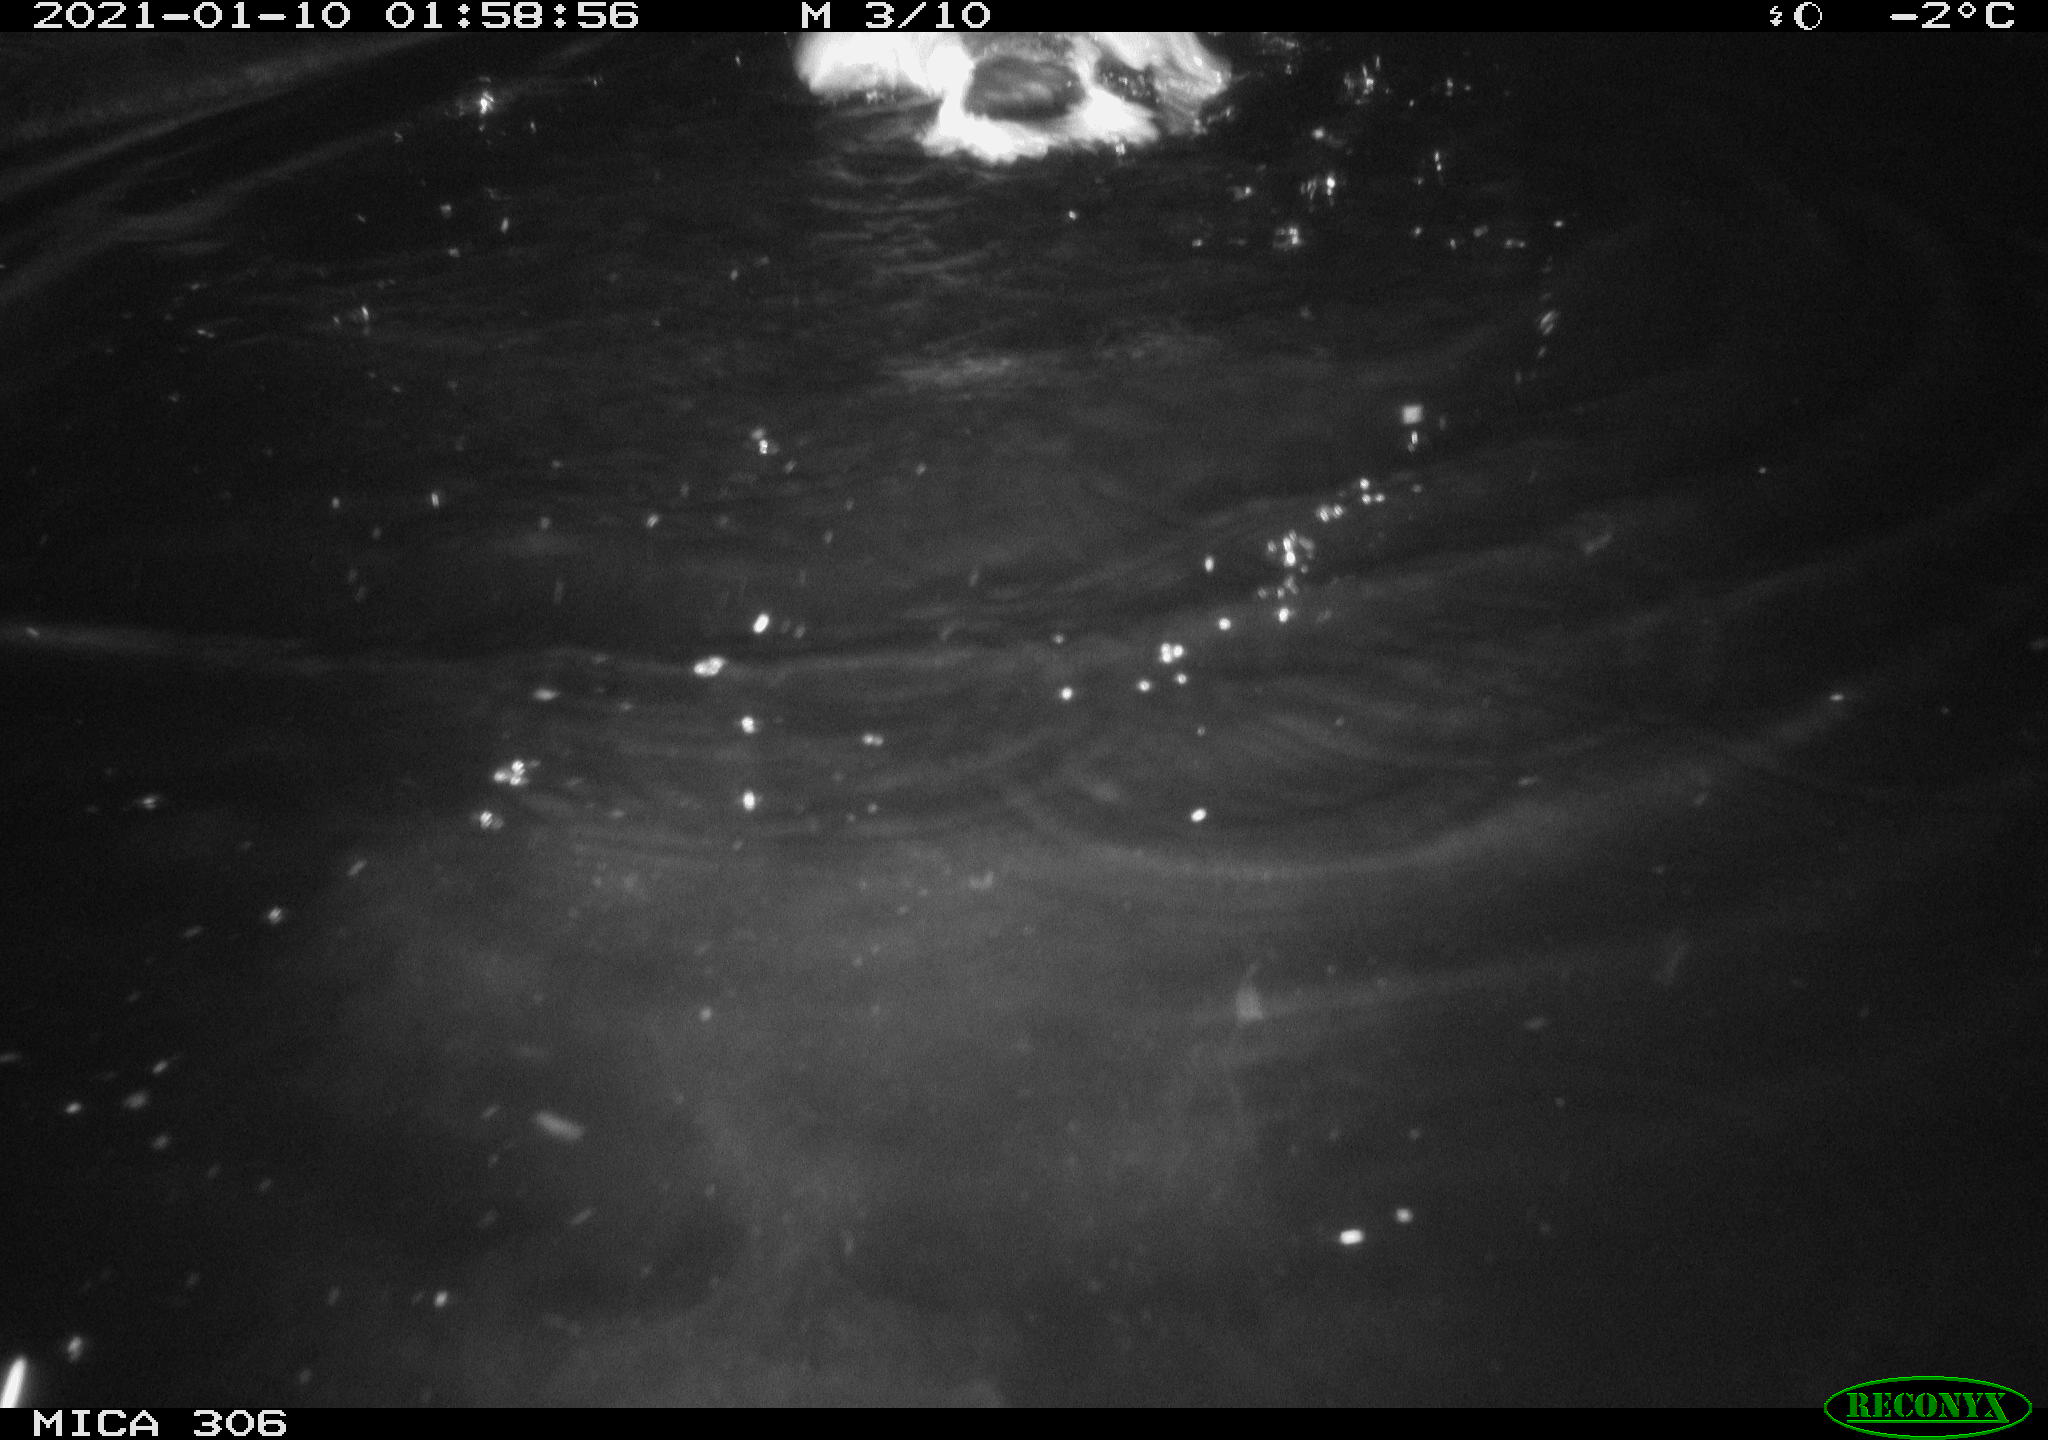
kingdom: Animalia
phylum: Chordata
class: Aves
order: Anseriformes
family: Anatidae
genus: Anas
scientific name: Anas platyrhynchos
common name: Mallard
